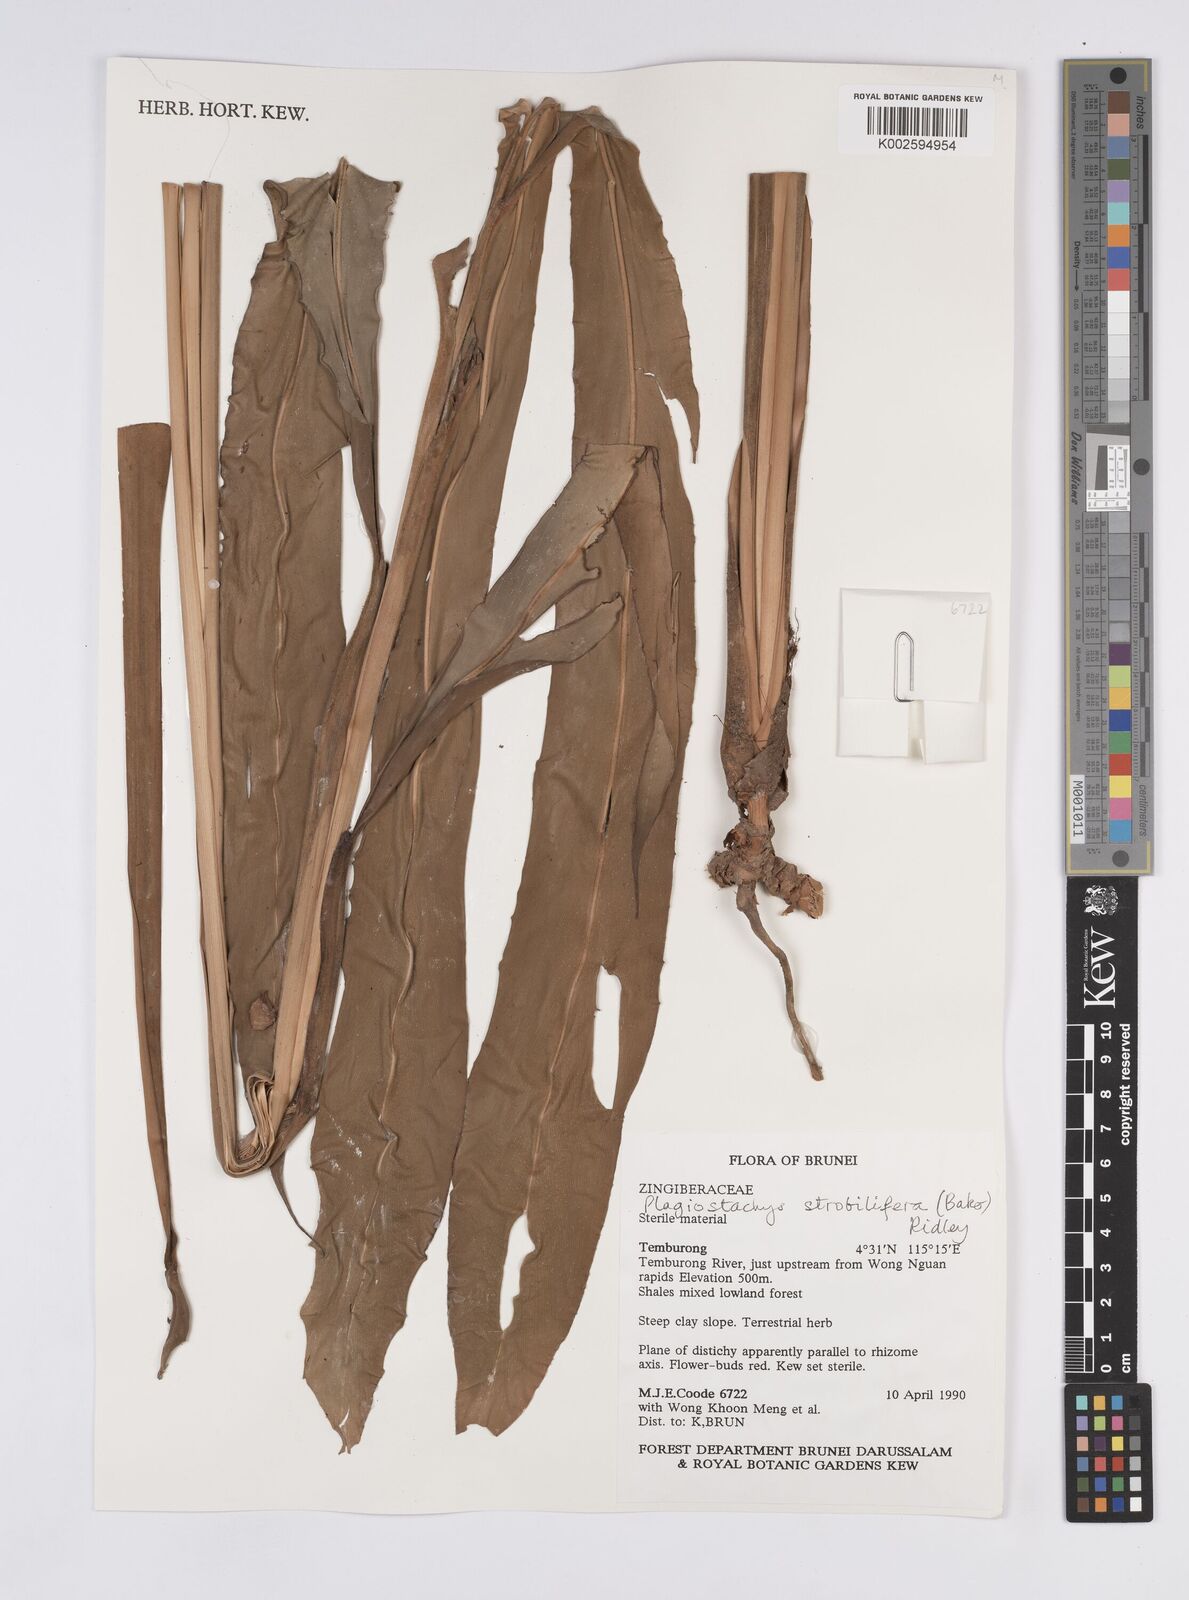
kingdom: Plantae
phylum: Tracheophyta
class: Liliopsida
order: Zingiberales
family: Zingiberaceae
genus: Plagiostachys
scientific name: Plagiostachys strobilifera
